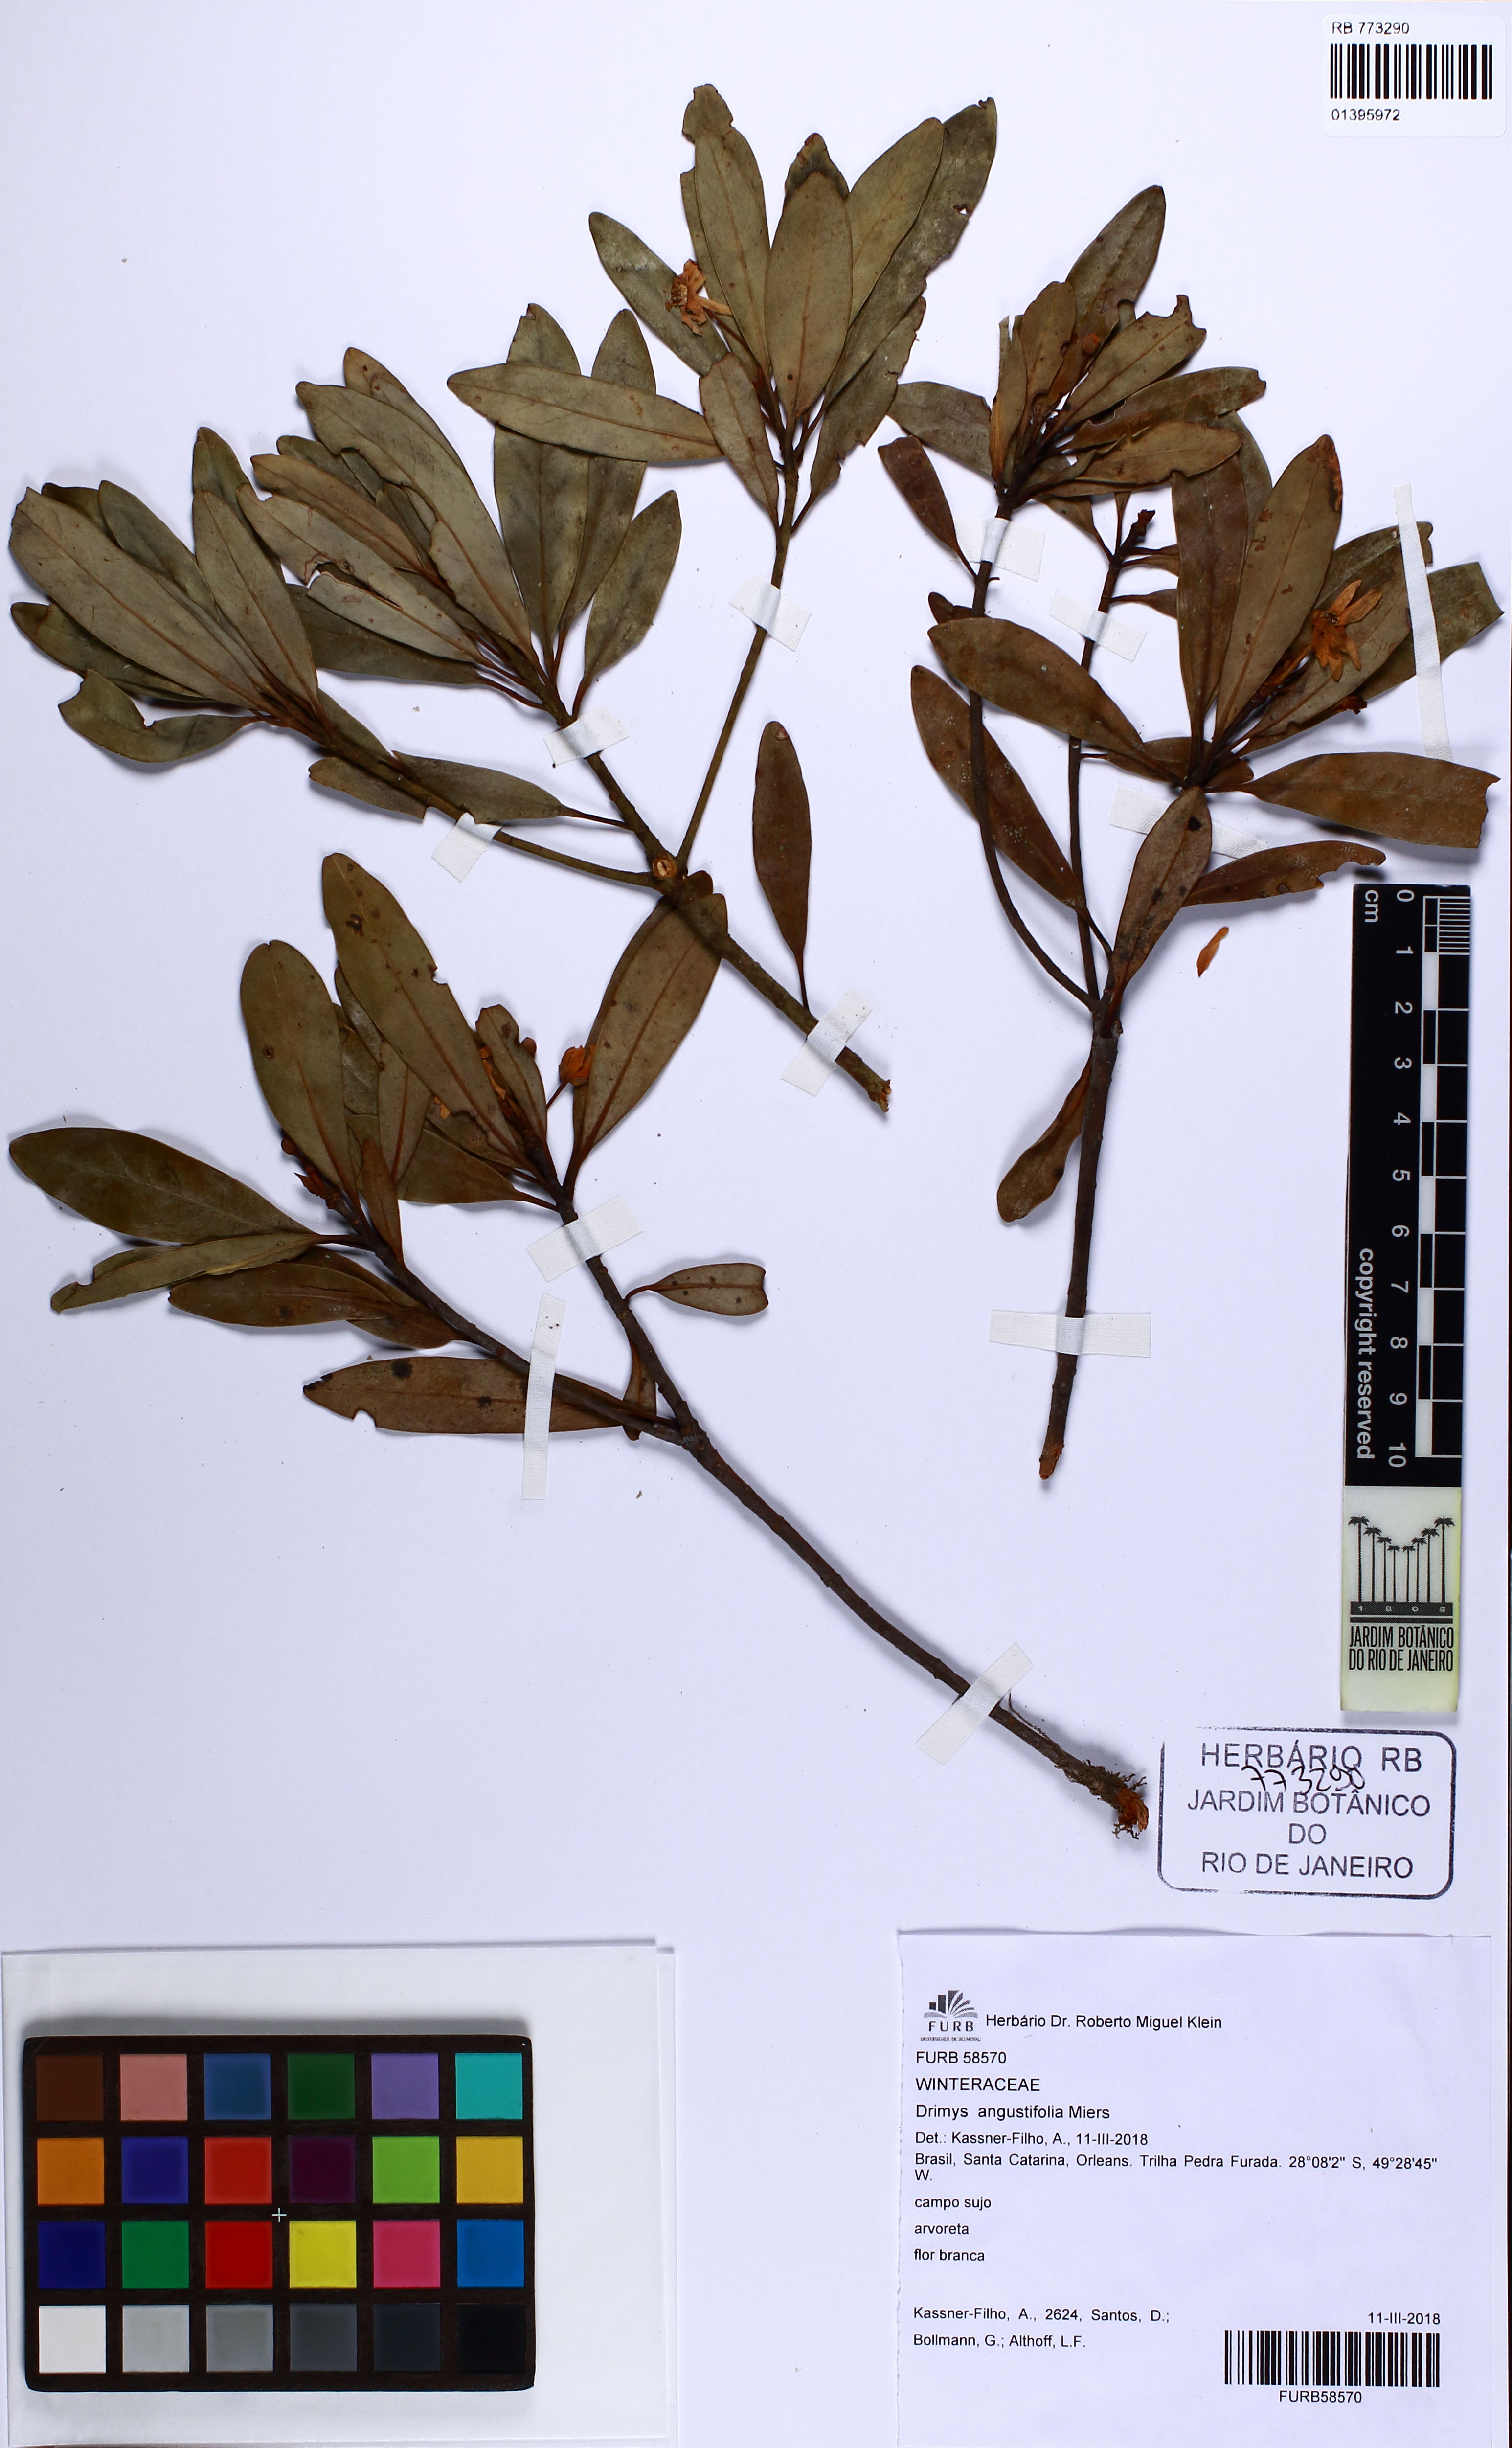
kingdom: Plantae
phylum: Tracheophyta
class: Magnoliopsida
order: Canellales
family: Winteraceae
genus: Drimys
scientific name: Drimys angustifolia
